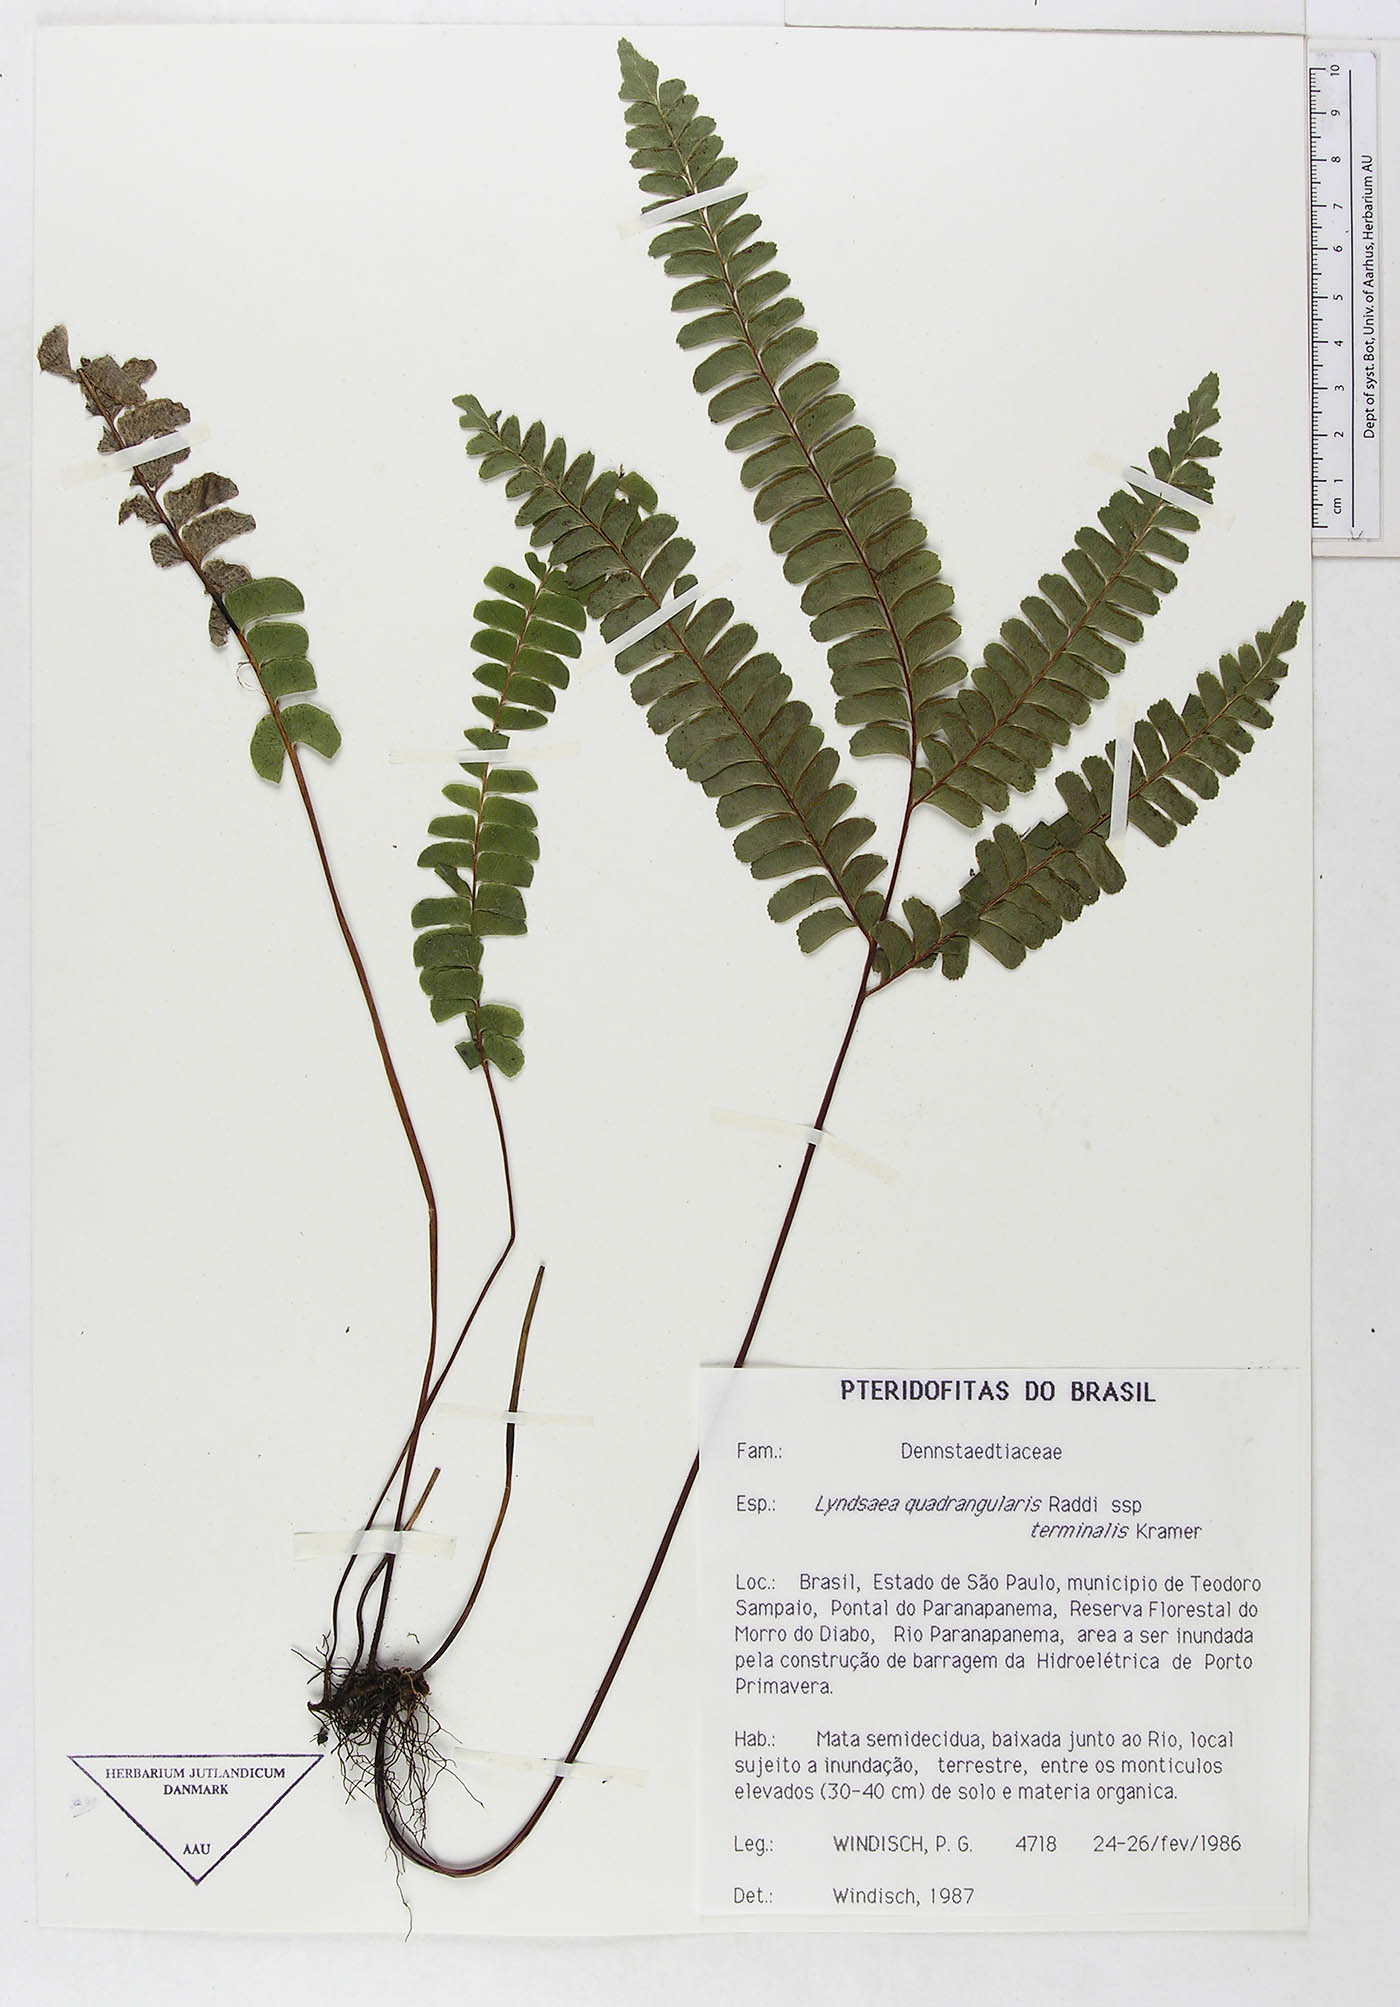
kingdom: Plantae
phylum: Tracheophyta
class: Polypodiopsida
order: Polypodiales
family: Lindsaeaceae
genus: Lindsaea
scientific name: Lindsaea quadrangularis
